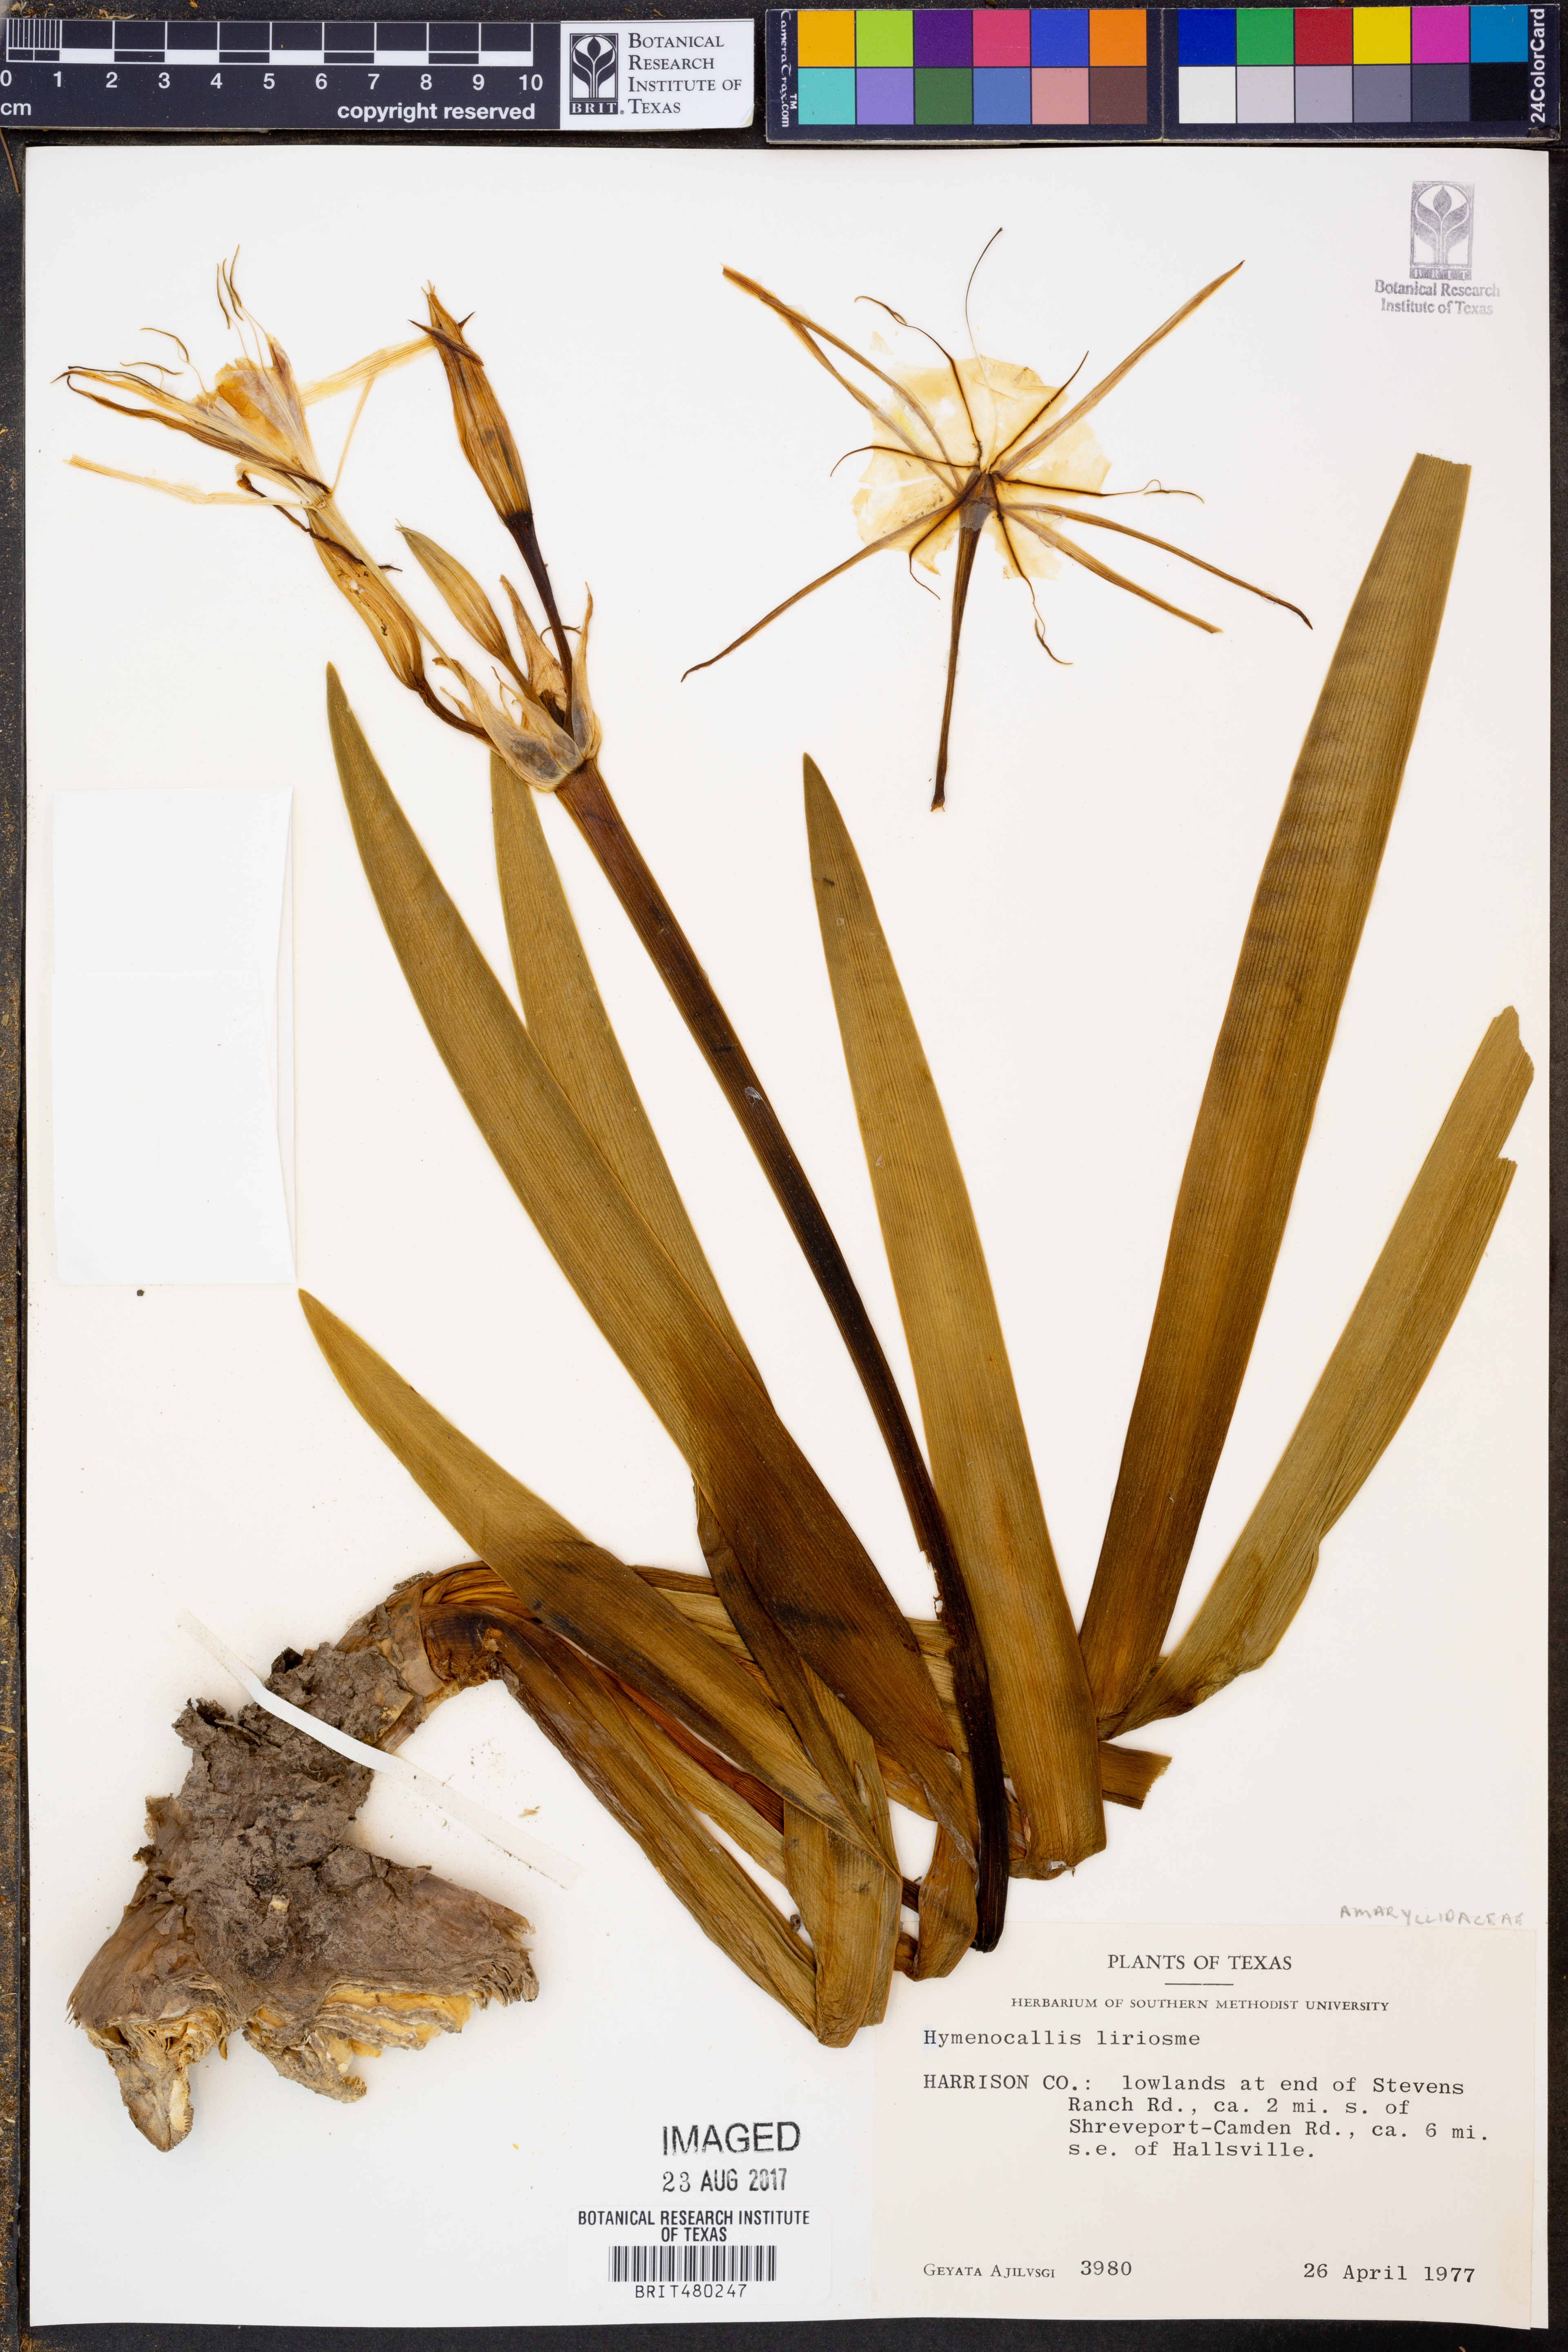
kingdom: Plantae
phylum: Tracheophyta
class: Liliopsida
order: Asparagales
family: Amaryllidaceae
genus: Hymenocallis
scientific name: Hymenocallis liriosme
